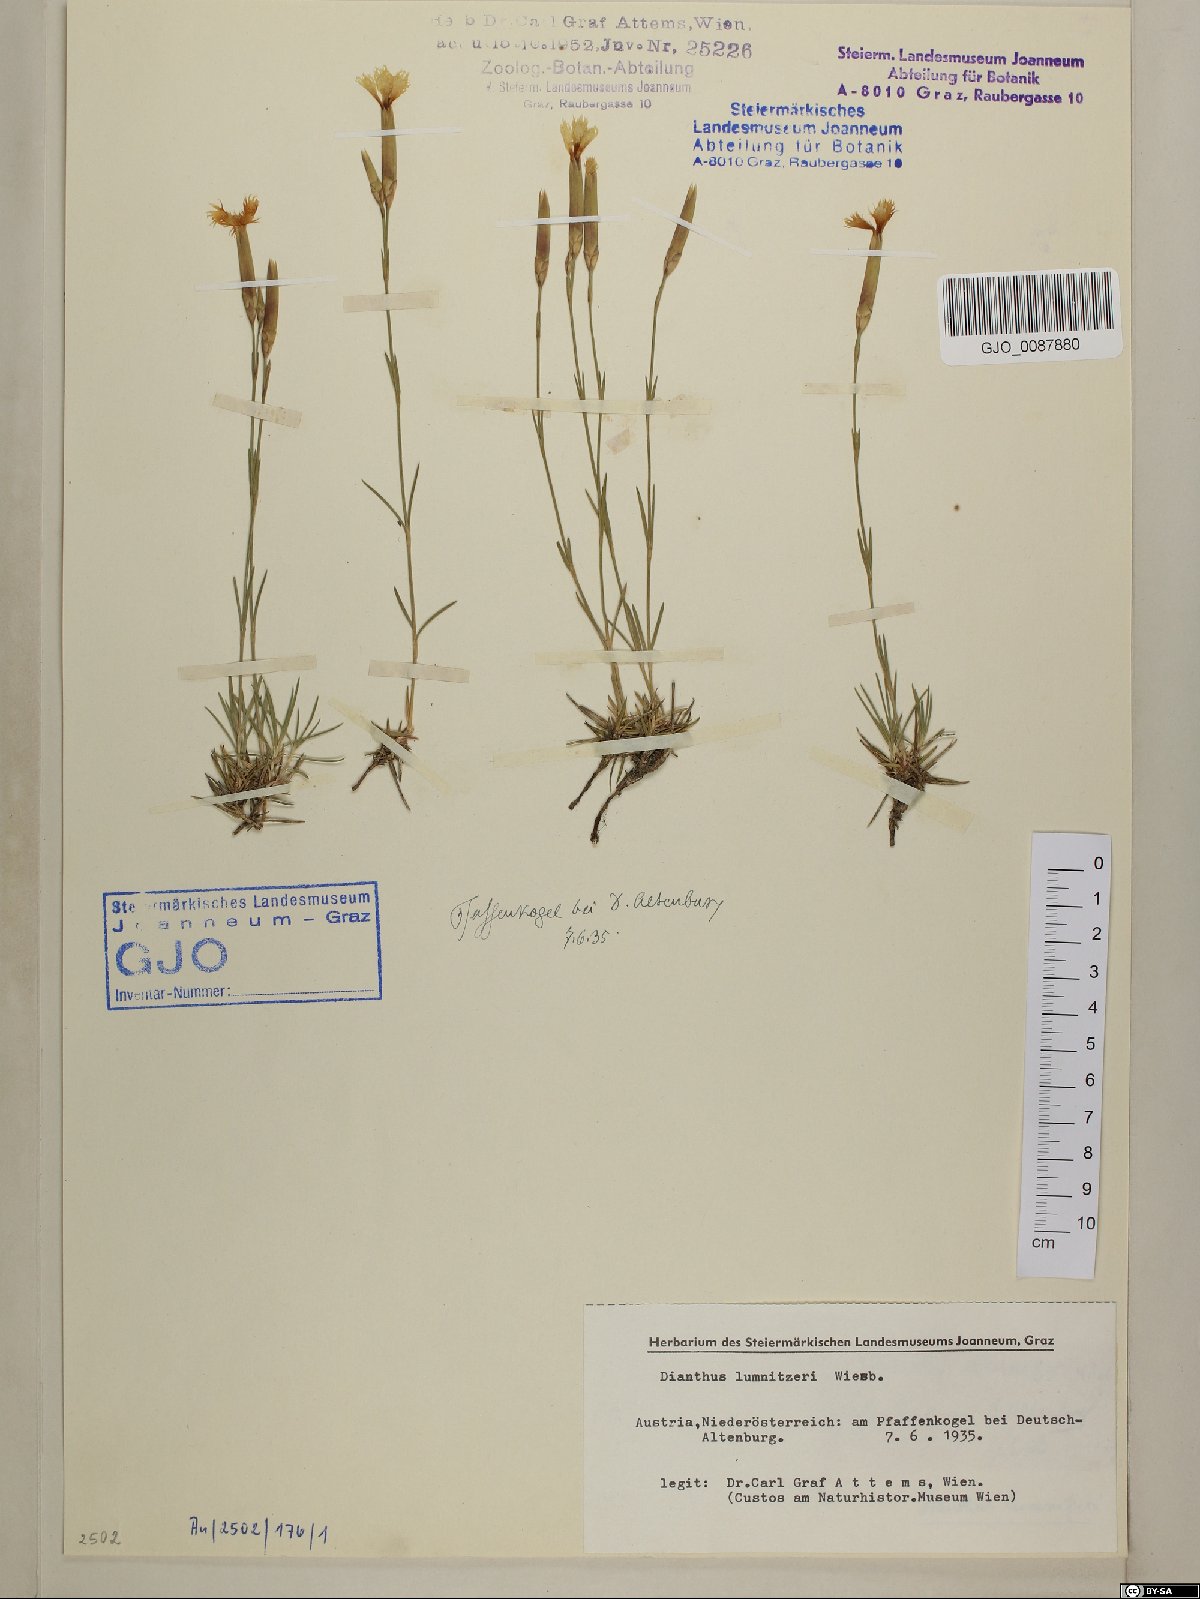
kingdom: Plantae
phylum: Tracheophyta
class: Magnoliopsida
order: Caryophyllales
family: Caryophyllaceae
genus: Dianthus
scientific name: Dianthus praecox
